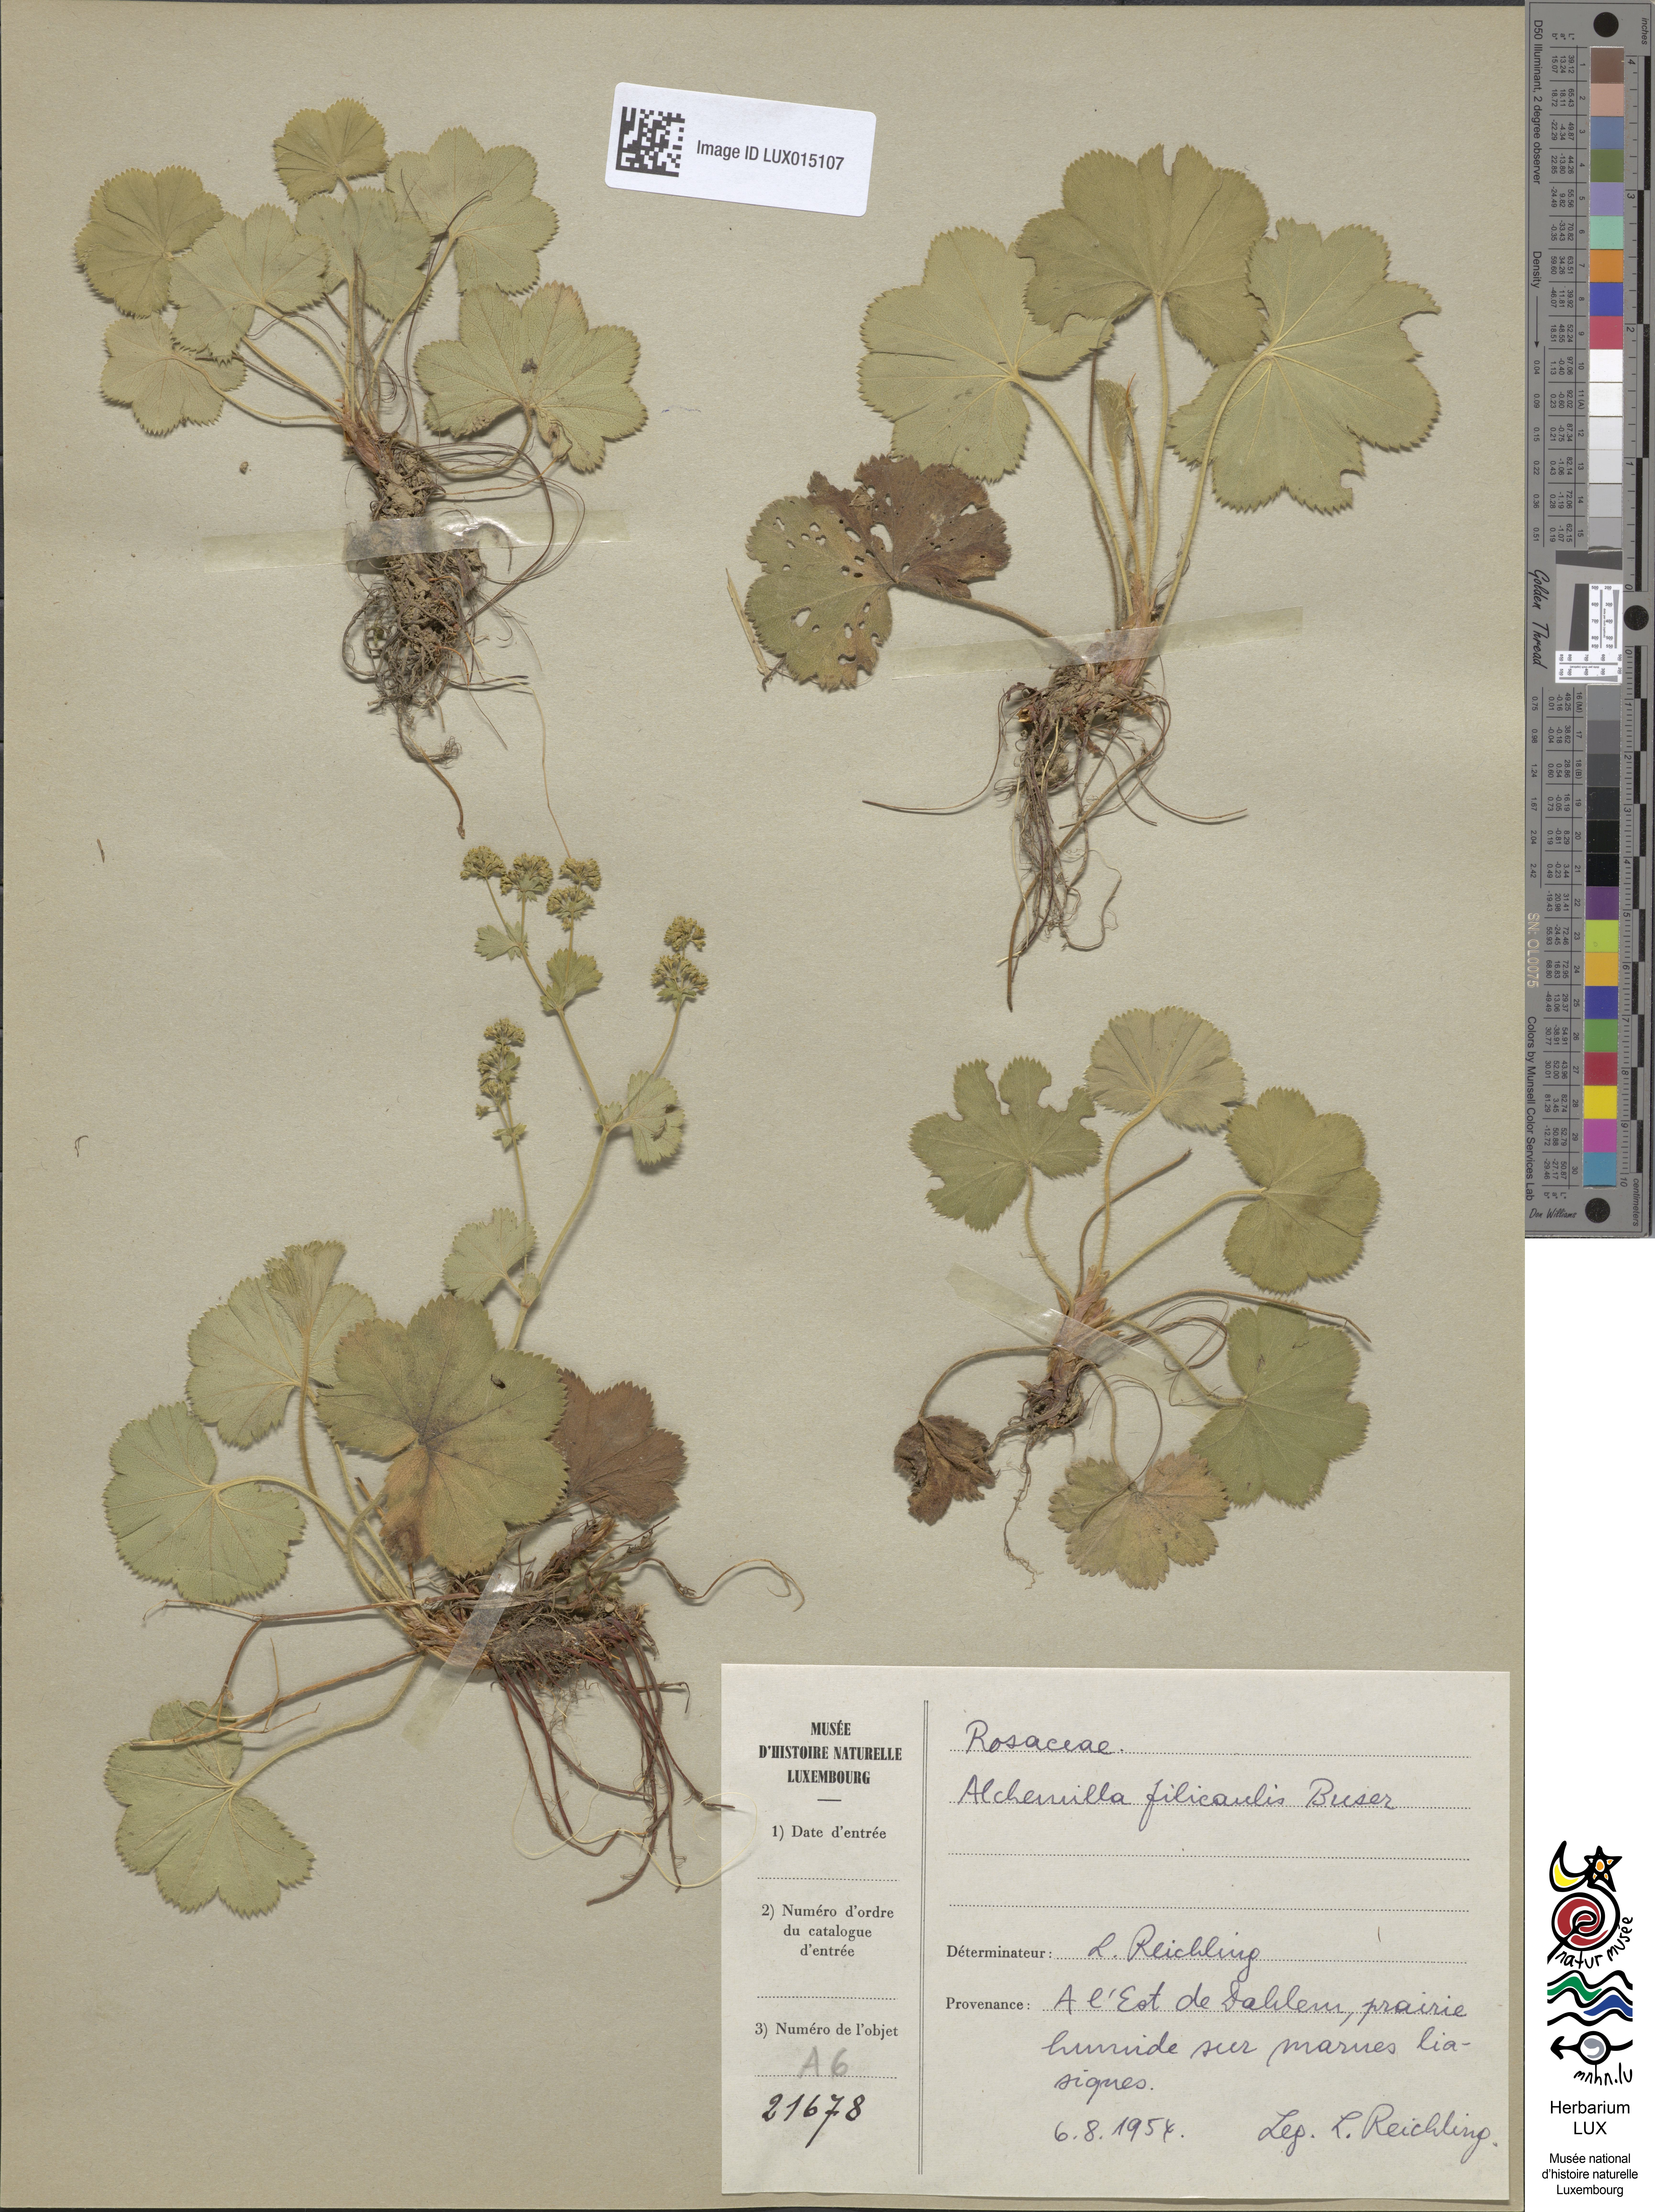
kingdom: Plantae
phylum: Tracheophyta
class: Magnoliopsida
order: Rosales
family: Rosaceae
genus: Alchemilla
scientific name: Alchemilla filicaulis
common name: Hairy lady's-mantle
